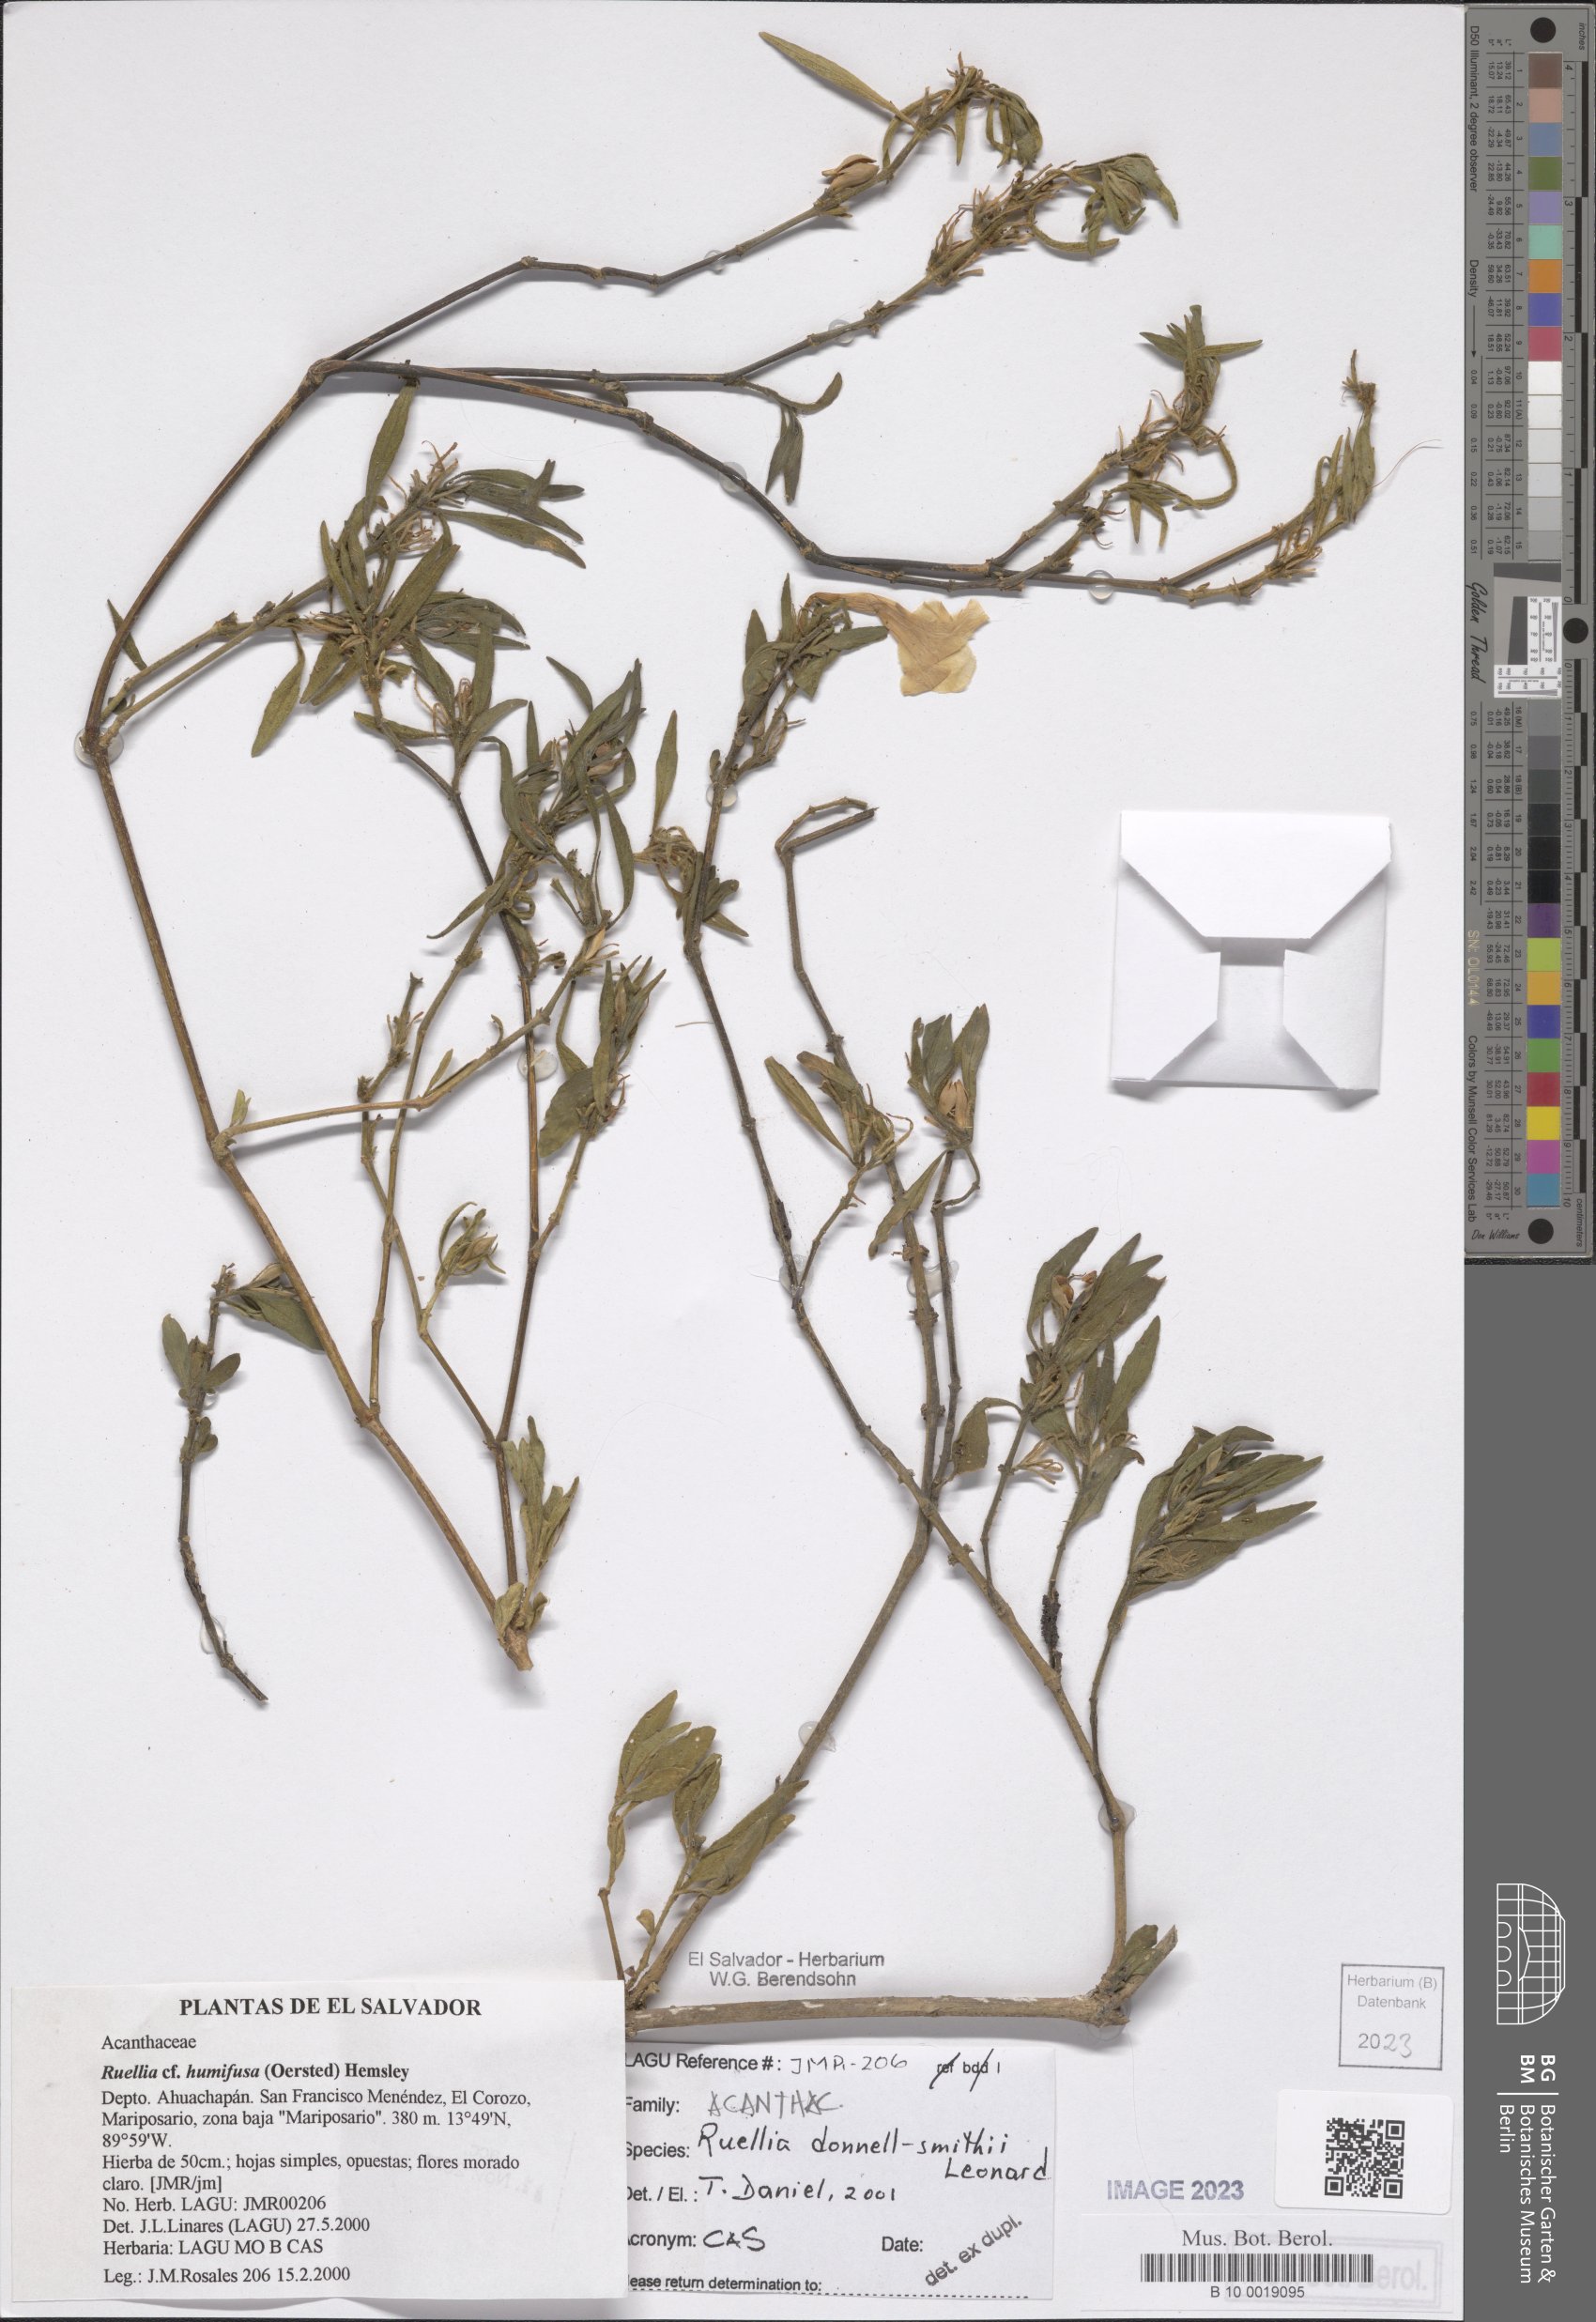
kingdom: Plantae
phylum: Tracheophyta
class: Magnoliopsida
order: Lamiales
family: Acanthaceae
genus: Ruellia
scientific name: Ruellia donnell-smithii
